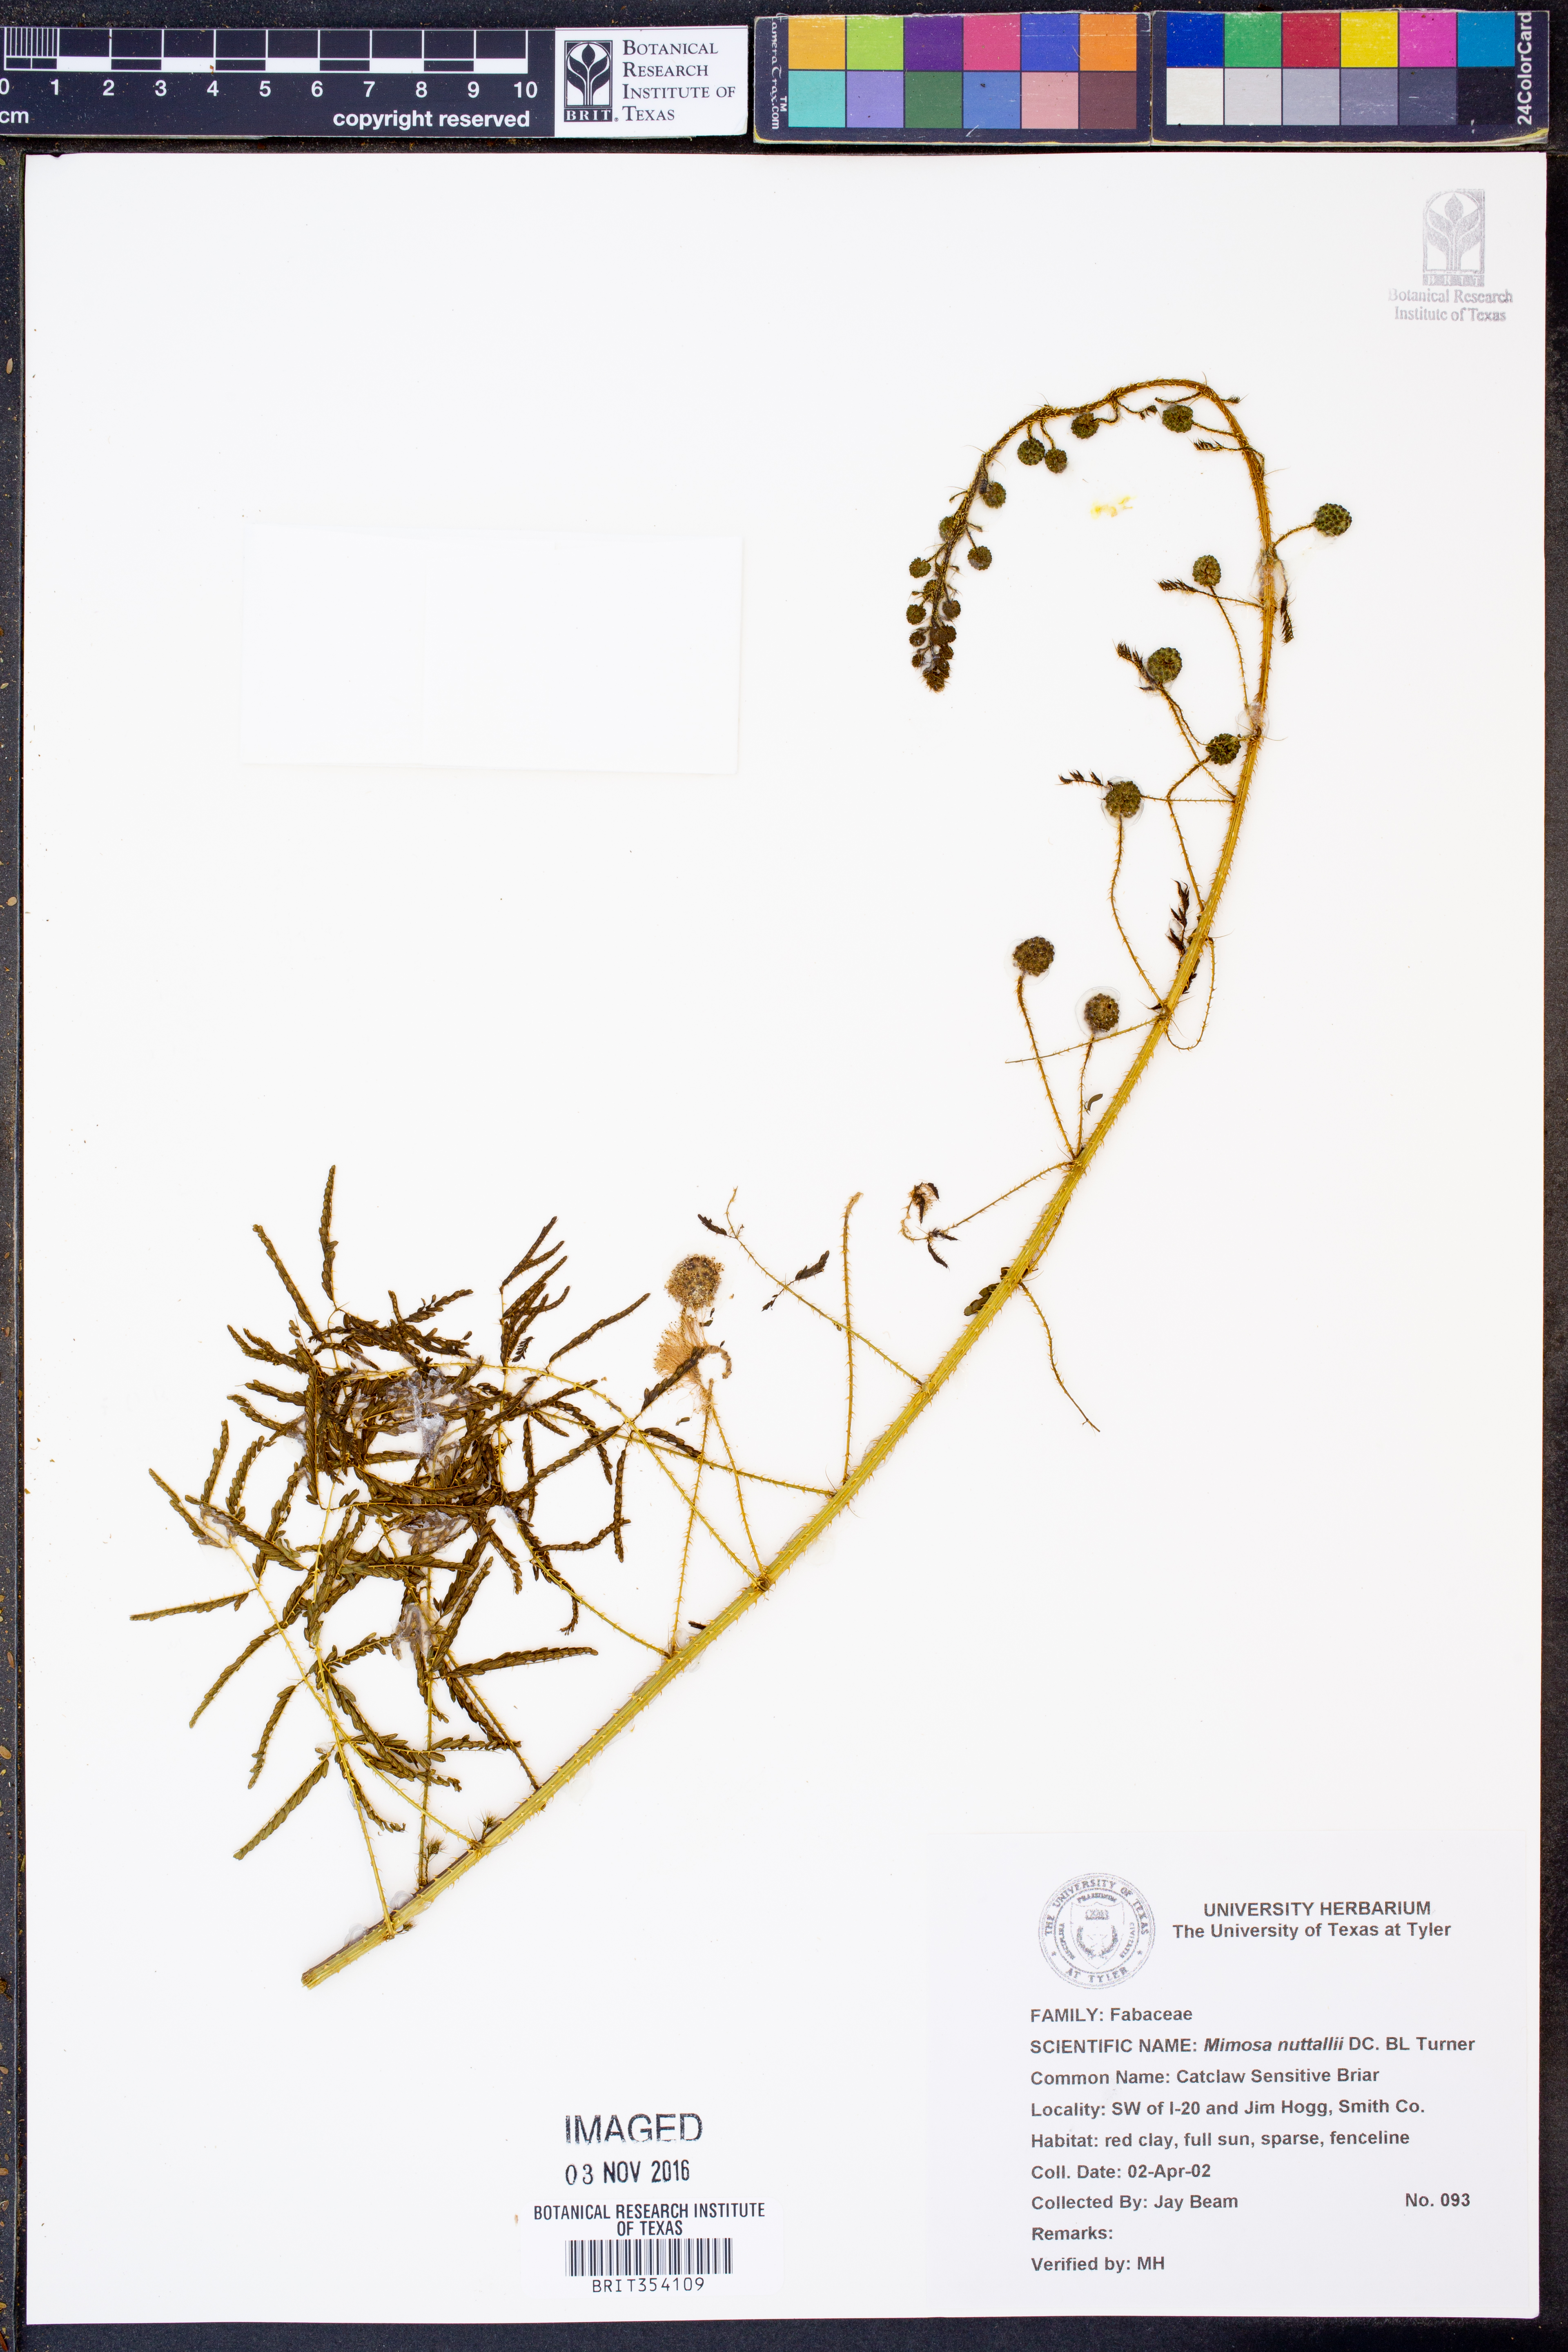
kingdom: Plantae
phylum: Tracheophyta
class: Magnoliopsida
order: Fabales
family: Fabaceae
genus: Mimosa
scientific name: Mimosa quadrivalvis
